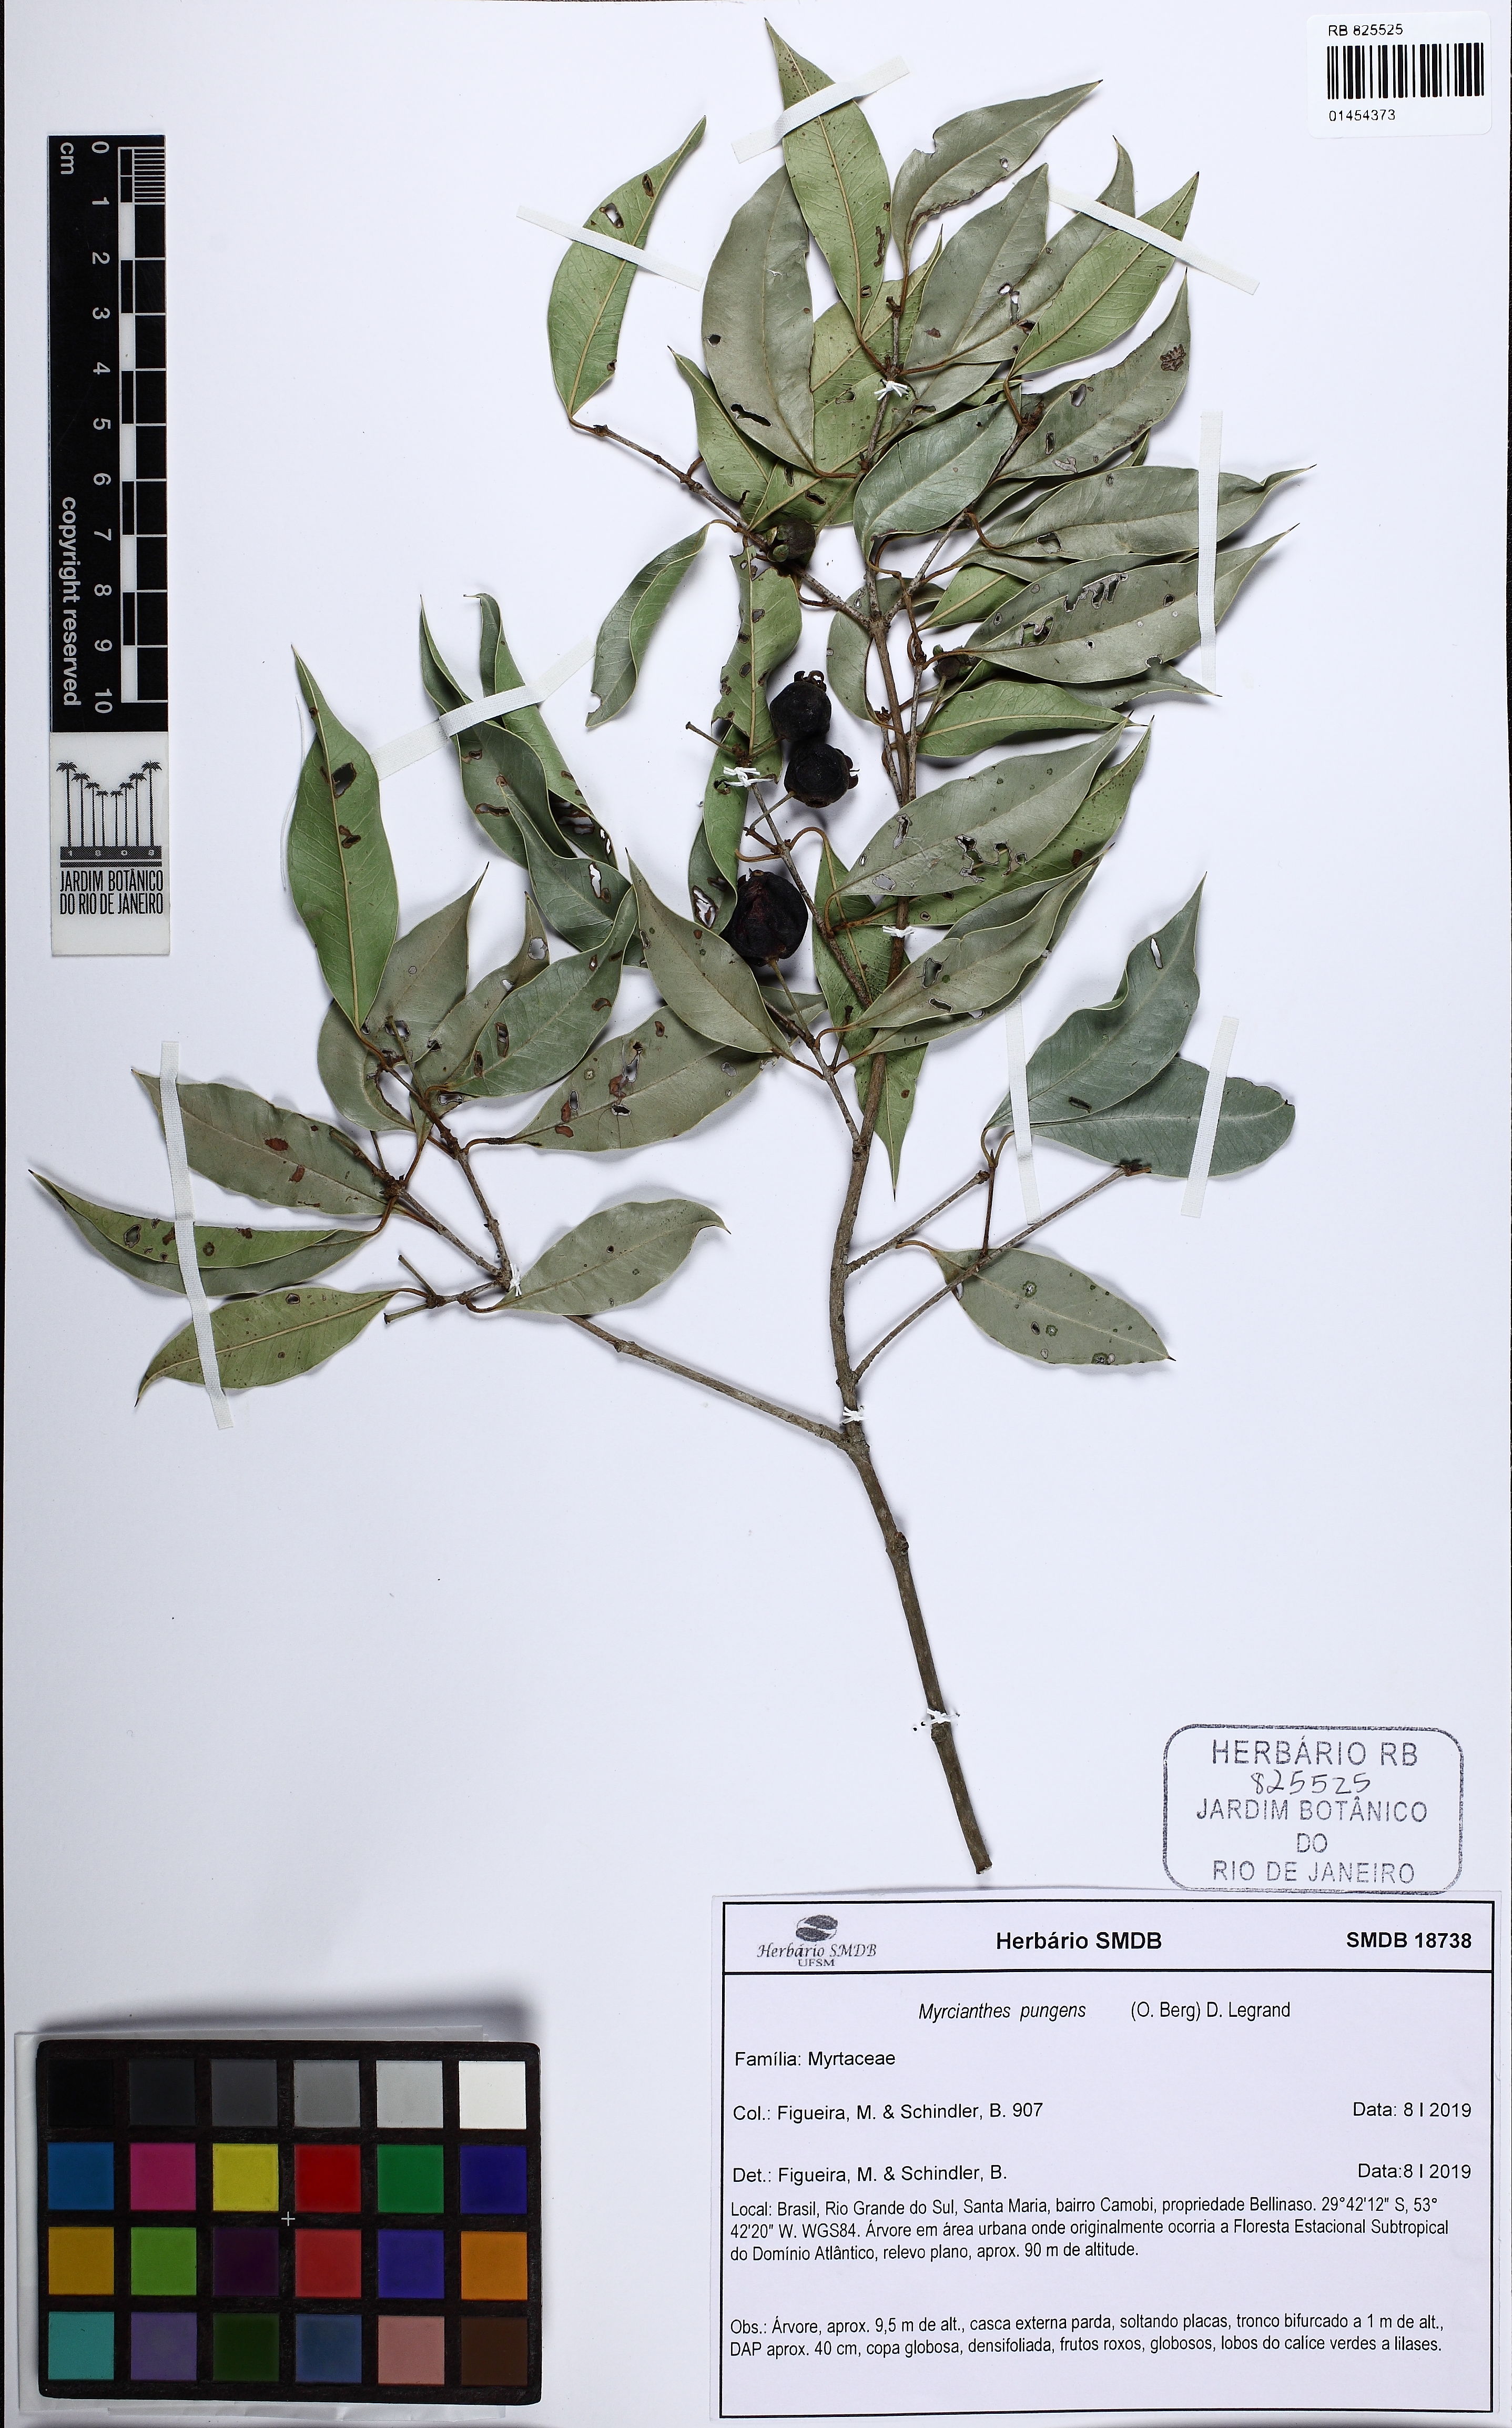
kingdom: Plantae
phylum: Tracheophyta
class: Magnoliopsida
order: Myrtales
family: Myrtaceae
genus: Myrcianthes
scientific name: Myrcianthes pungens
